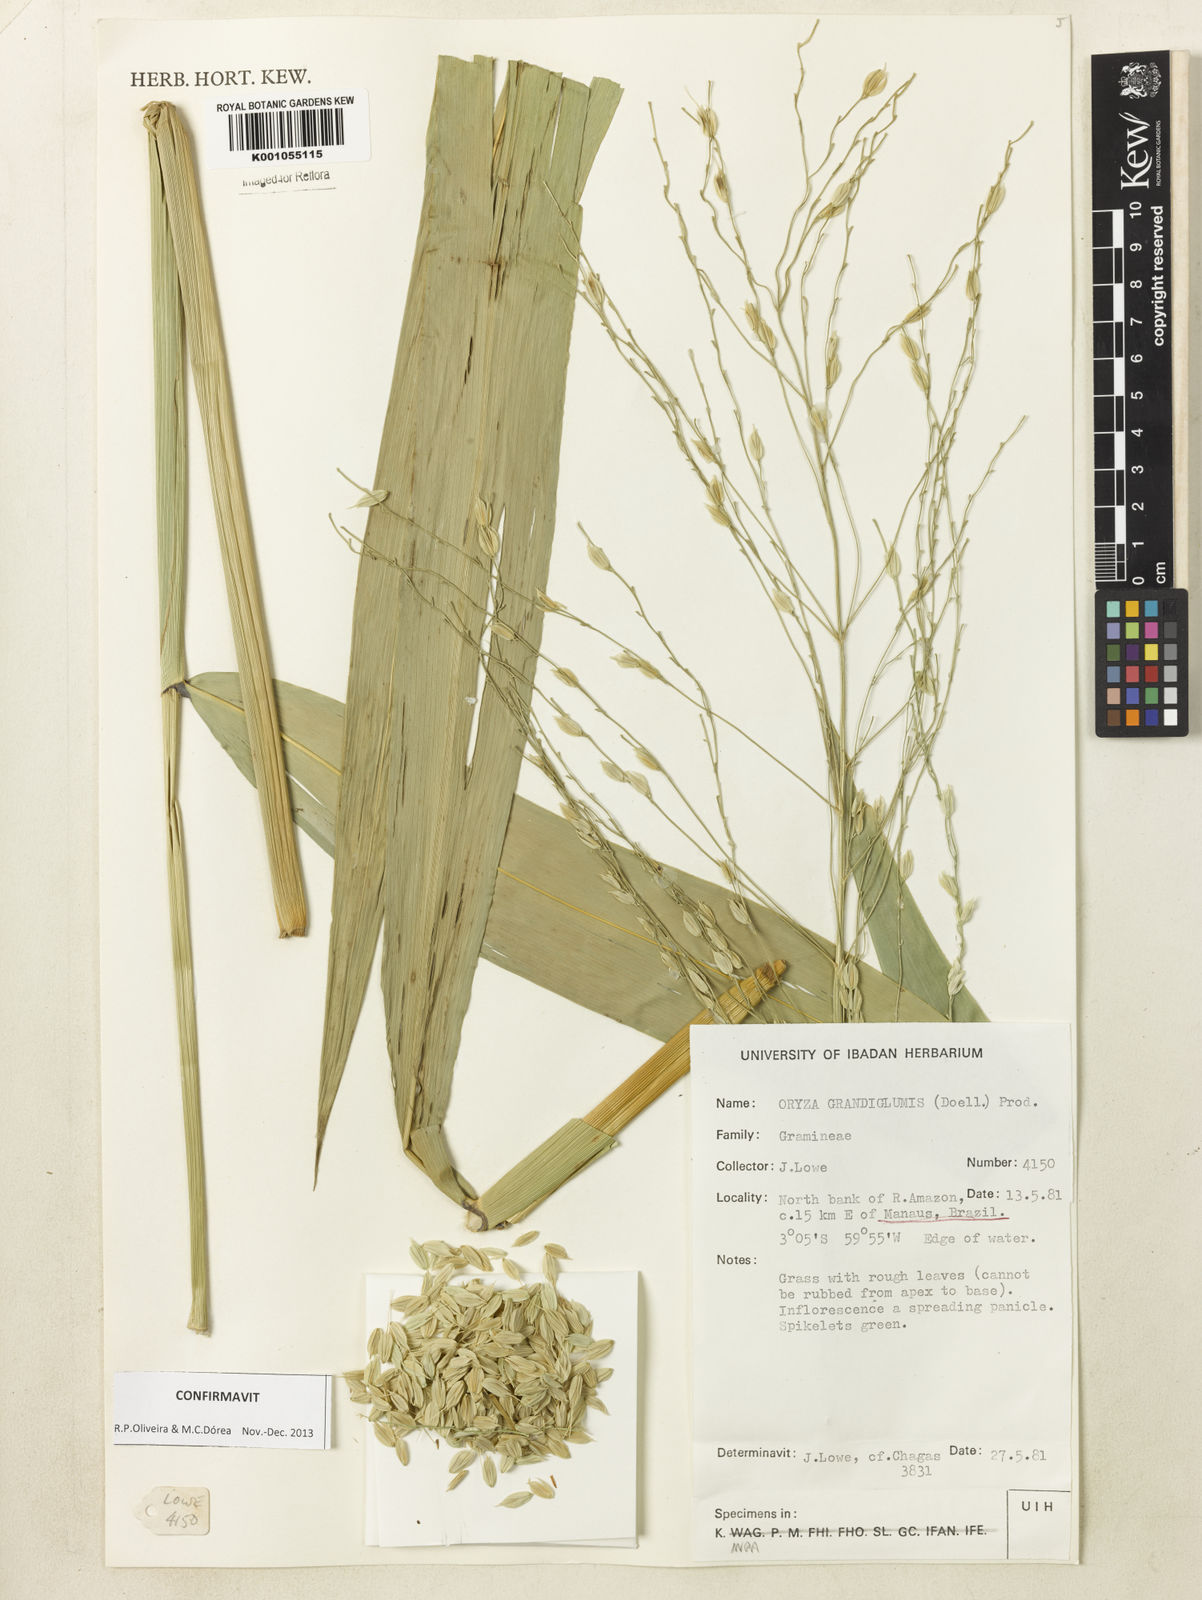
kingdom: Plantae
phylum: Tracheophyta
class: Liliopsida
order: Poales
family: Poaceae
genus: Oryza
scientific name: Oryza
